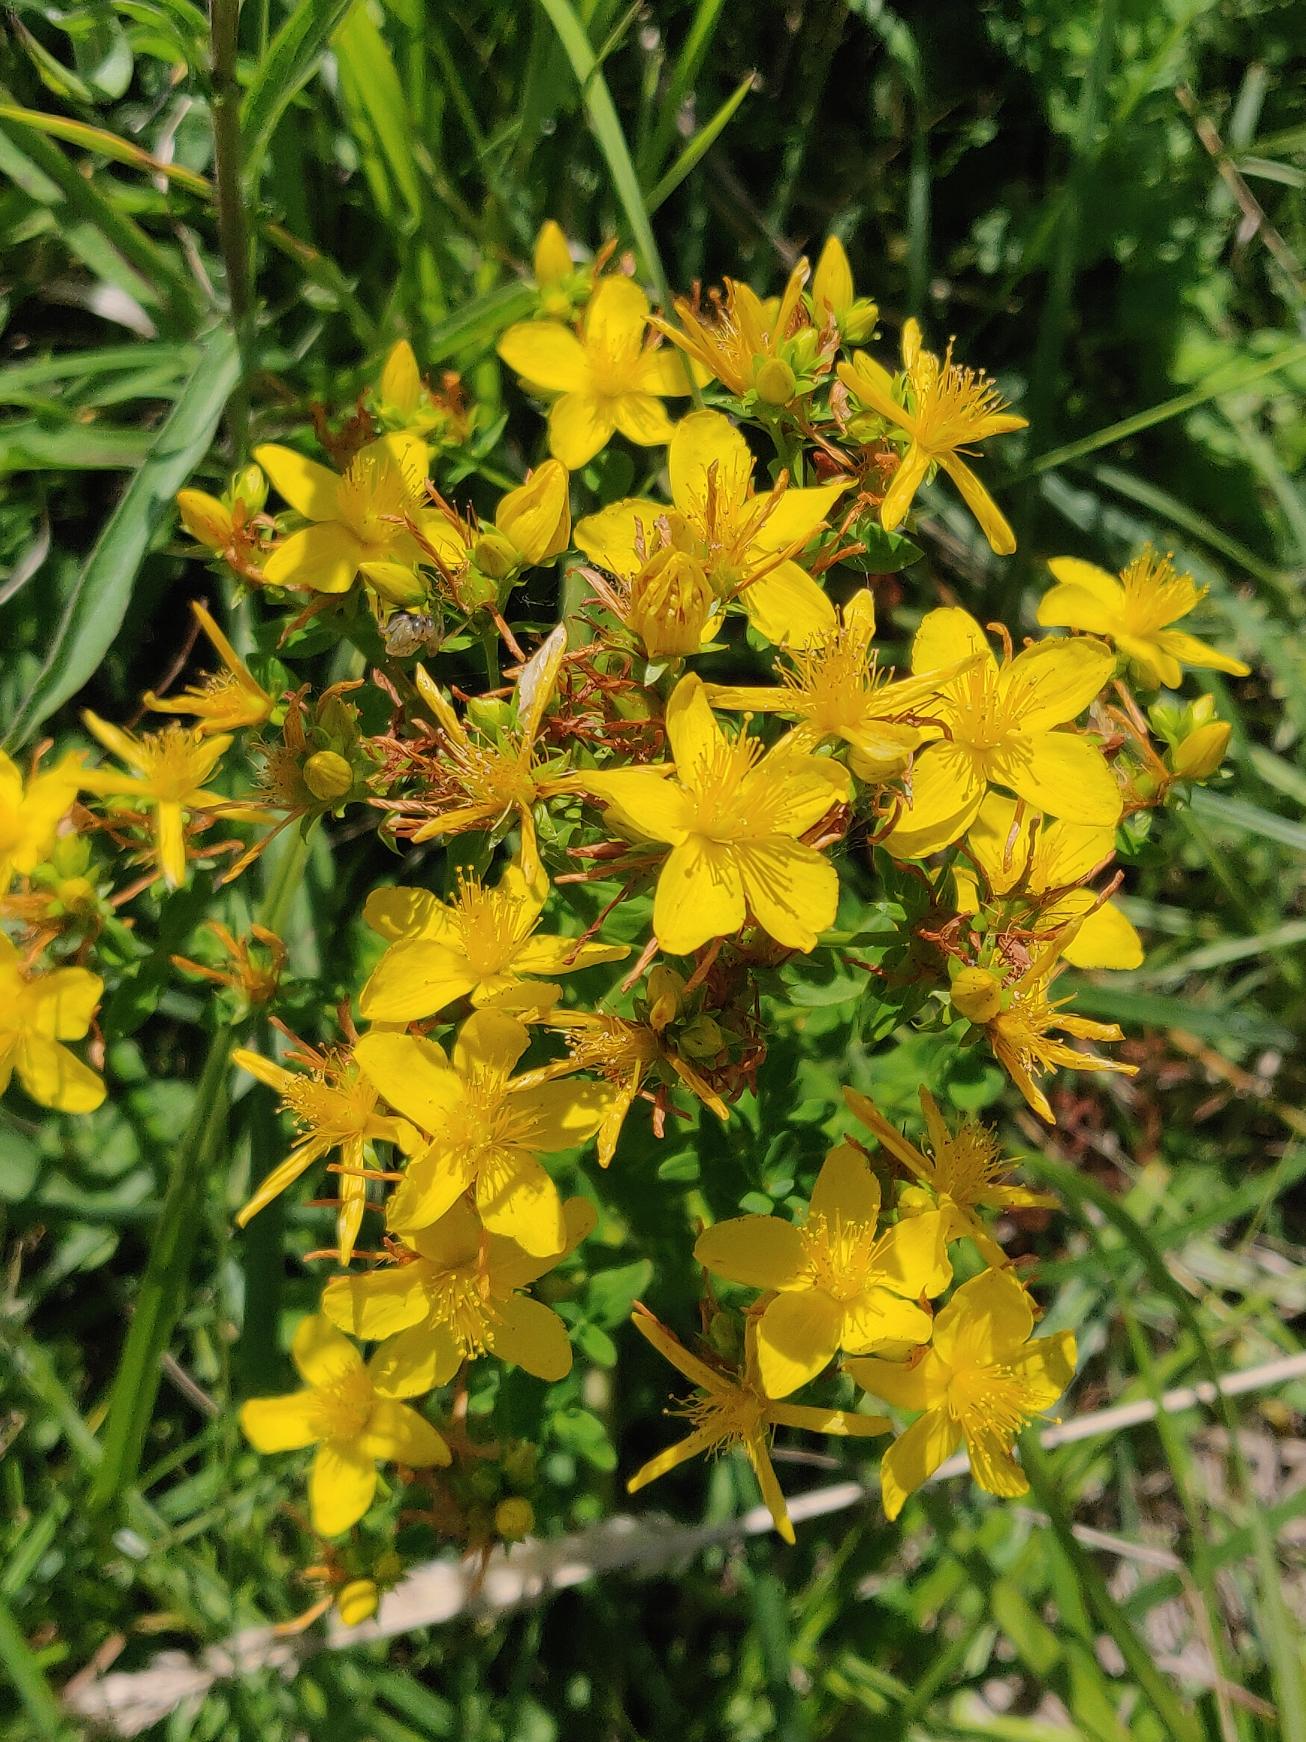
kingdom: Plantae
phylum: Tracheophyta
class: Magnoliopsida
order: Malpighiales
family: Hypericaceae
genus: Hypericum
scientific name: Hypericum perforatum
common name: Prikbladet perikon
